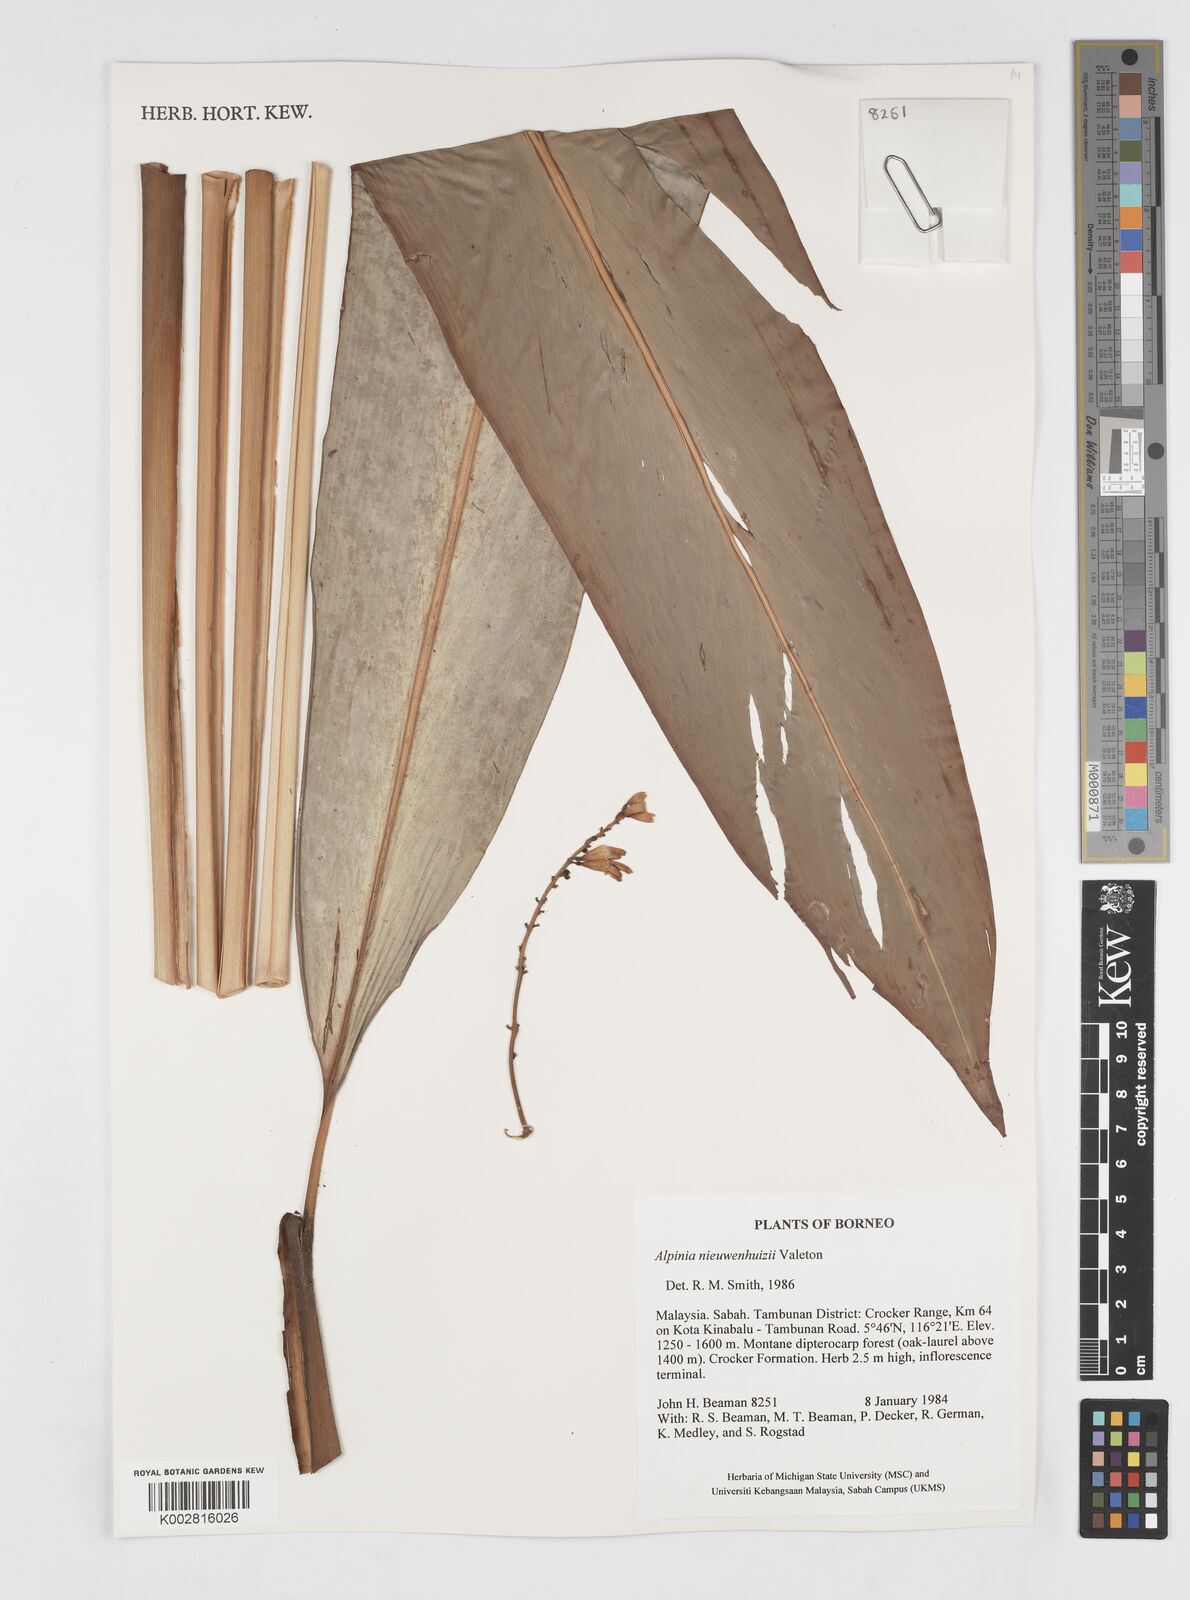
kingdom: Plantae
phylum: Tracheophyta
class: Liliopsida
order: Zingiberales
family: Zingiberaceae
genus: Alpinia
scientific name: Alpinia nieuwenhuizii
